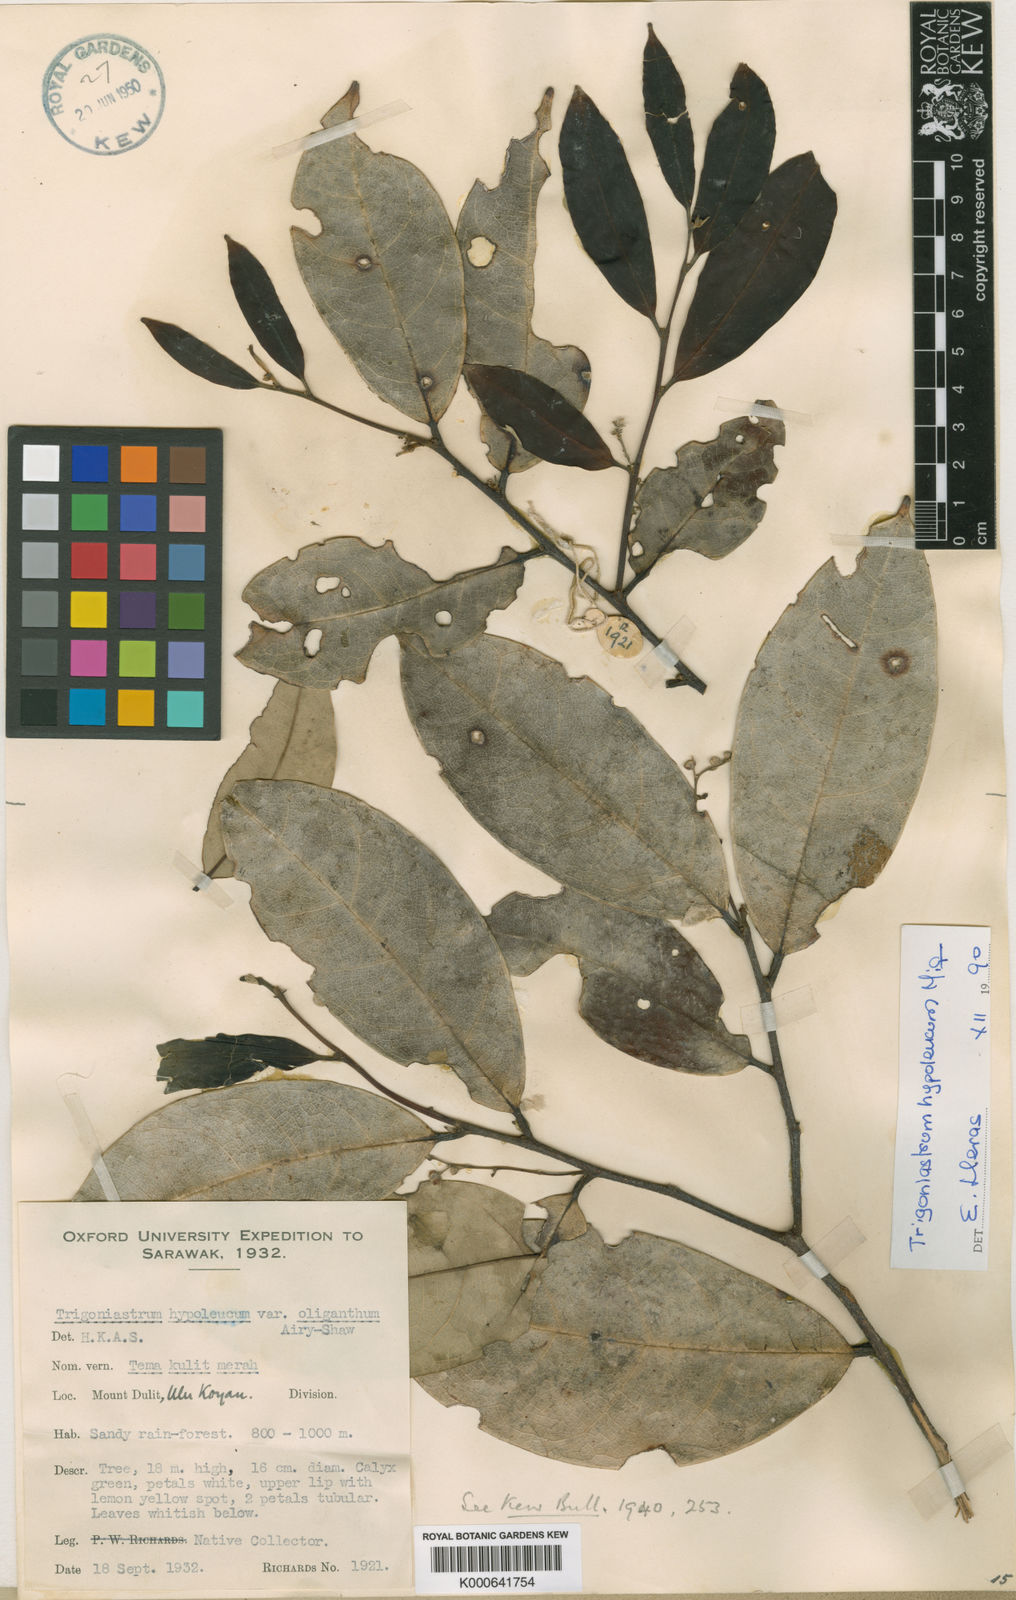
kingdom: Plantae
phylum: Tracheophyta
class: Magnoliopsida
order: Malpighiales
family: Trigoniaceae
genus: Trigoniastrum
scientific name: Trigoniastrum hypoleucum
